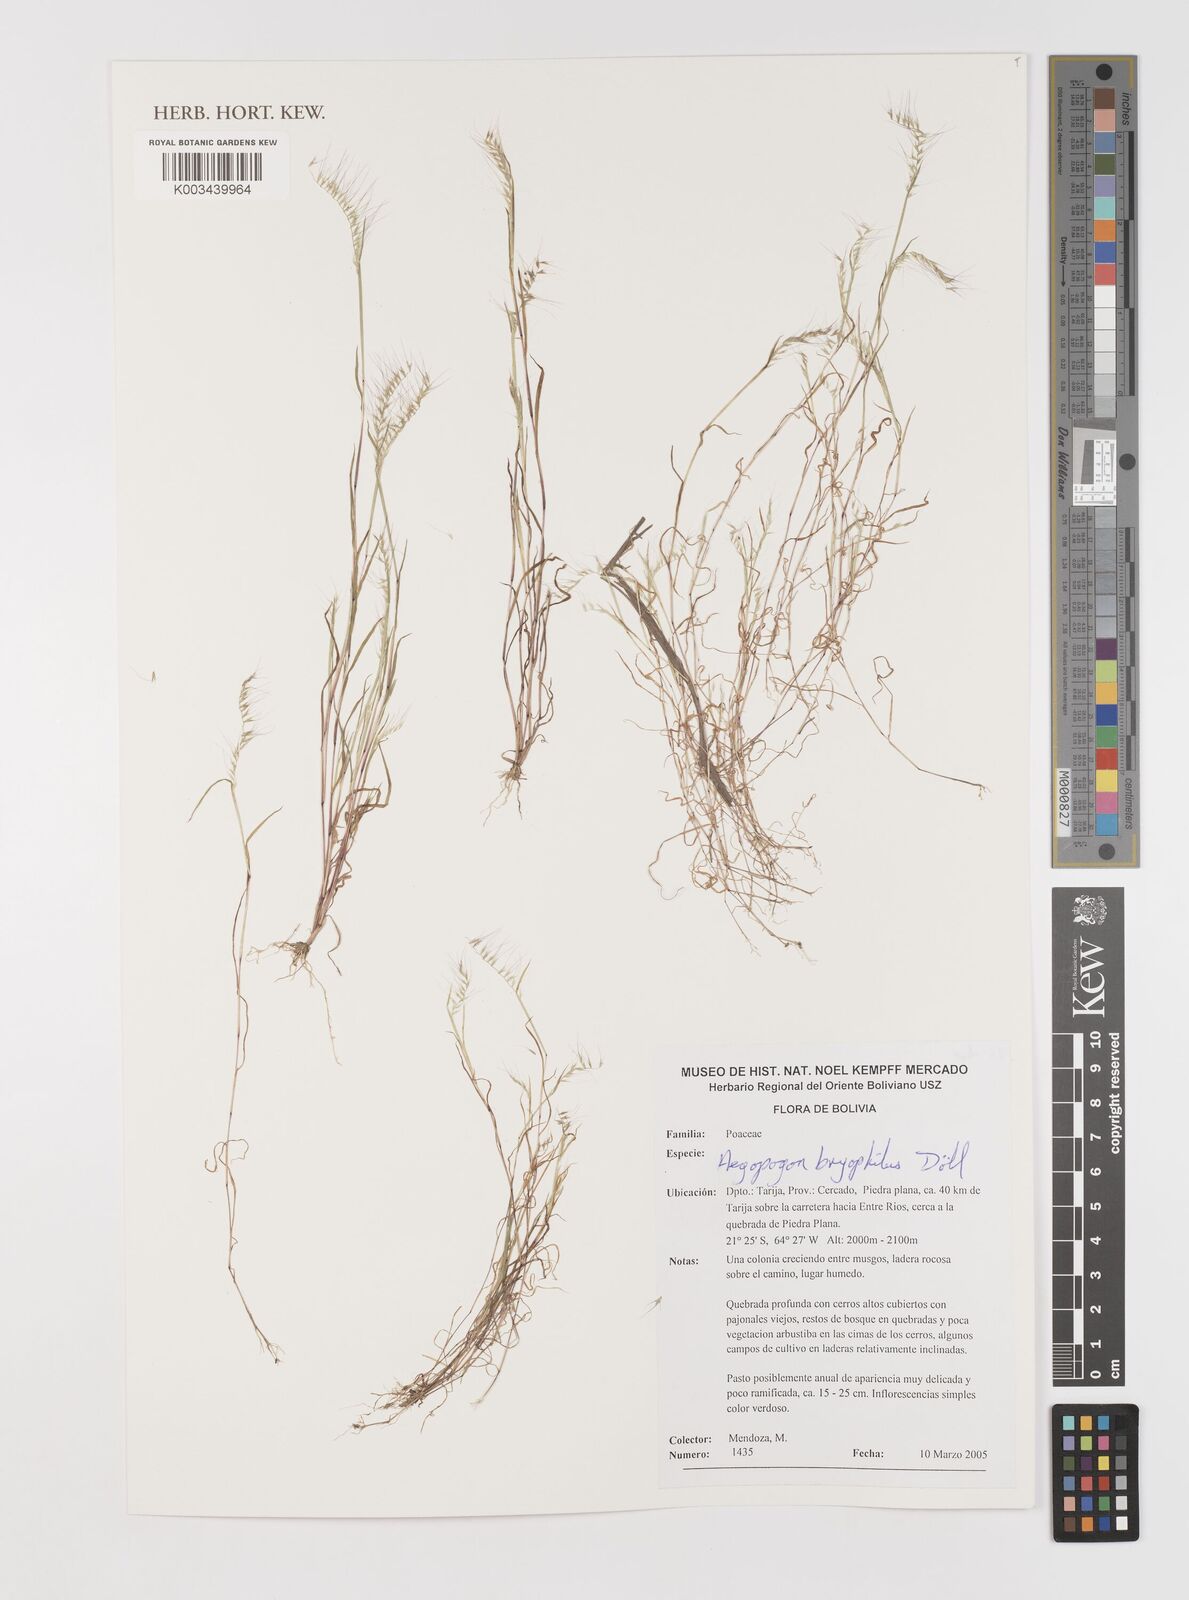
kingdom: Plantae
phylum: Tracheophyta
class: Liliopsida
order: Poales
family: Poaceae
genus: Muhlenbergia
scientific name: Muhlenbergia bryophilus
